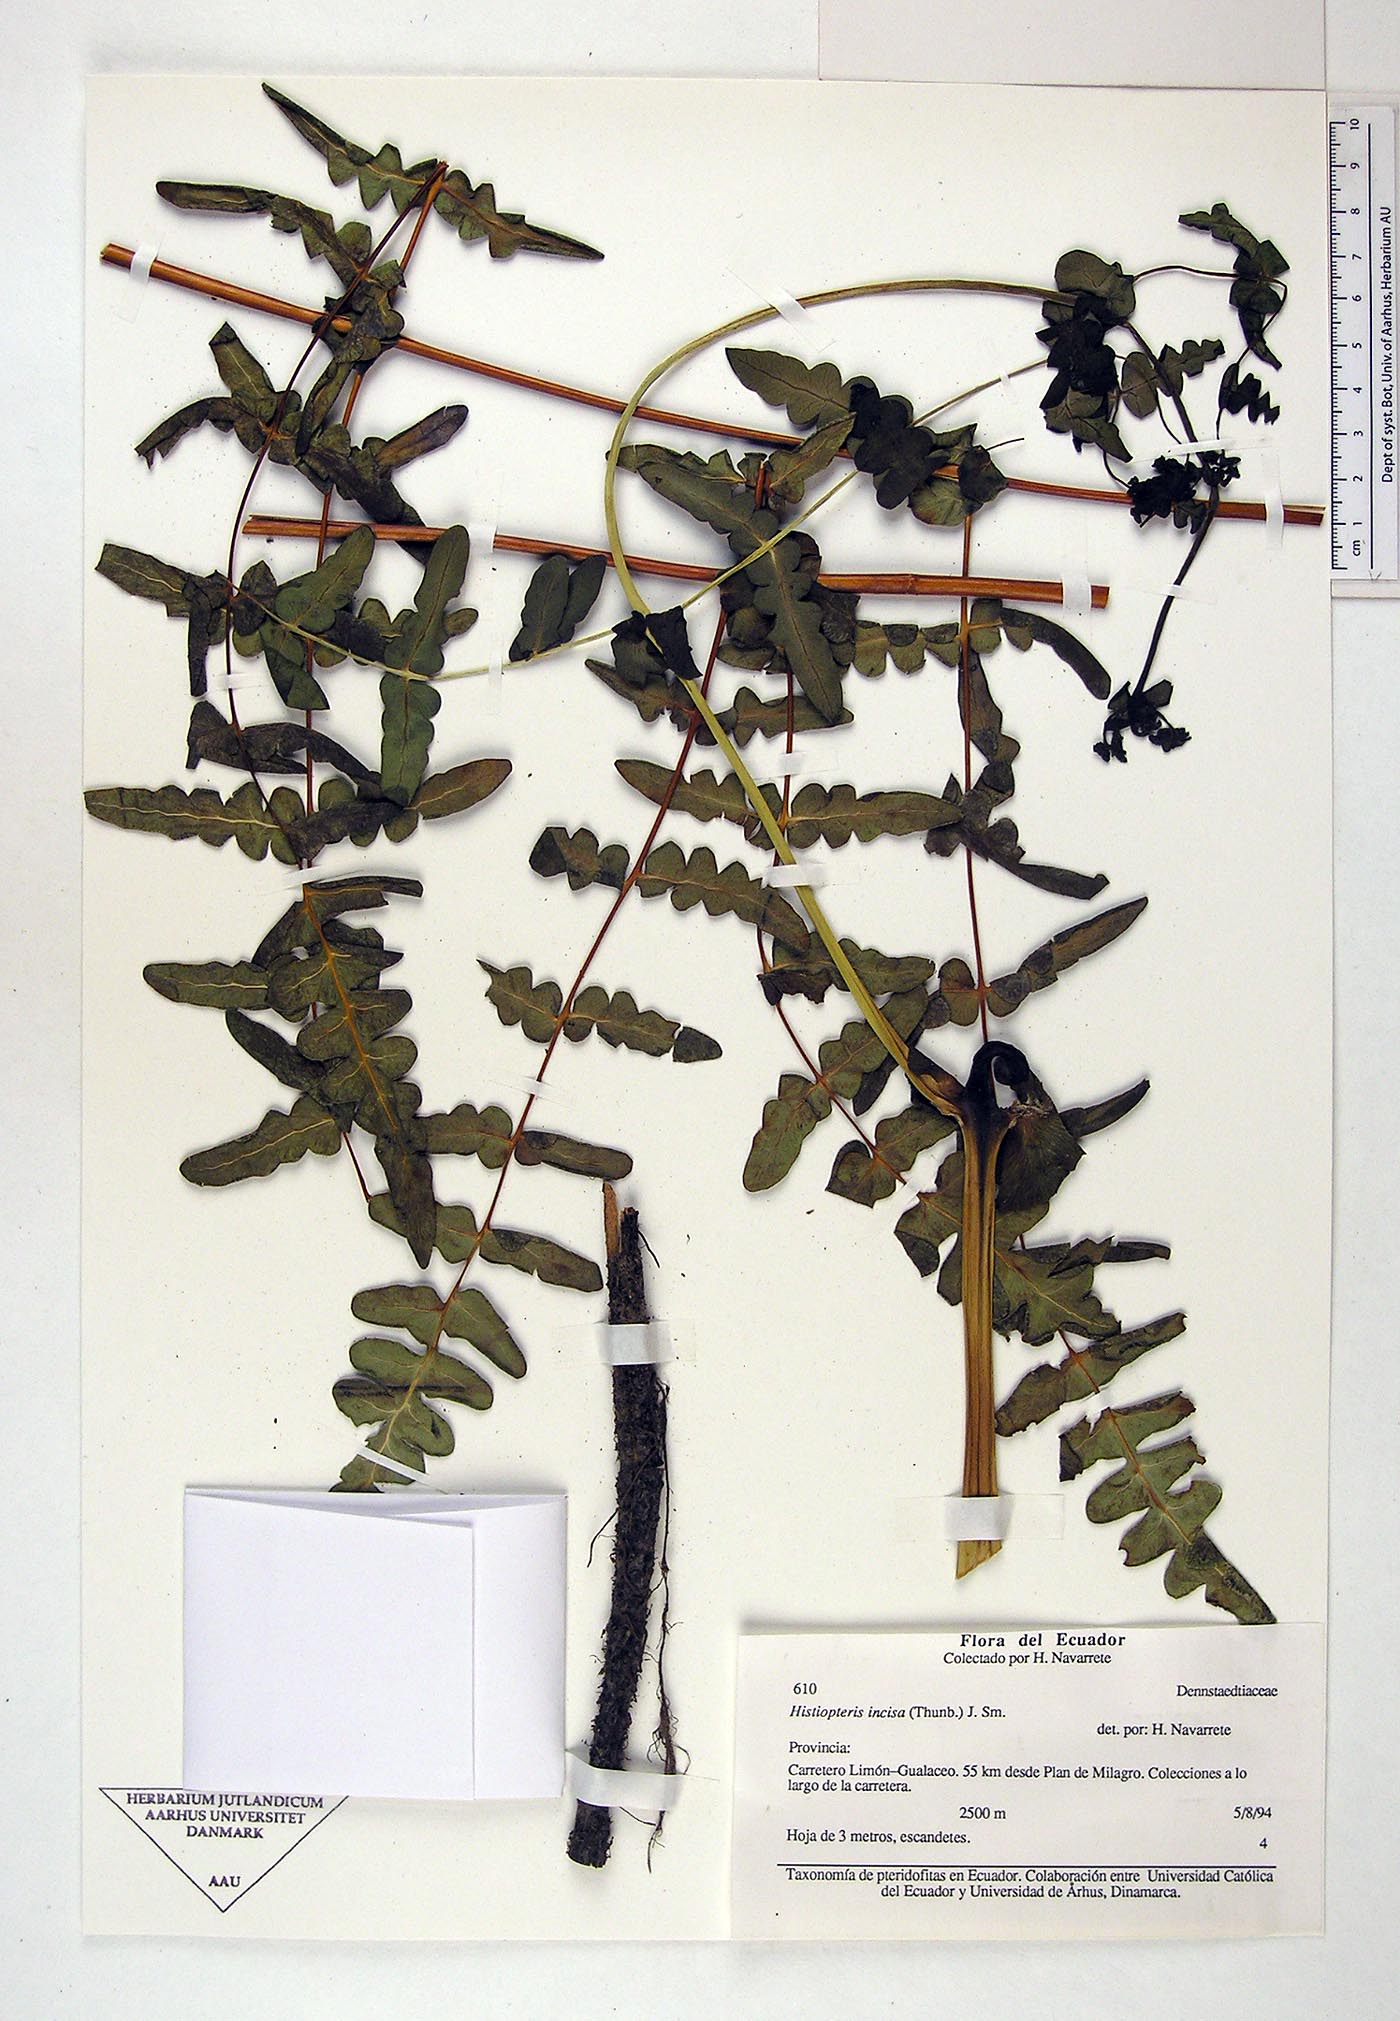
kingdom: Plantae
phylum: Tracheophyta
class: Polypodiopsida
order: Polypodiales
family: Dennstaedtiaceae
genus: Histiopteris
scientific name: Histiopteris incisa
